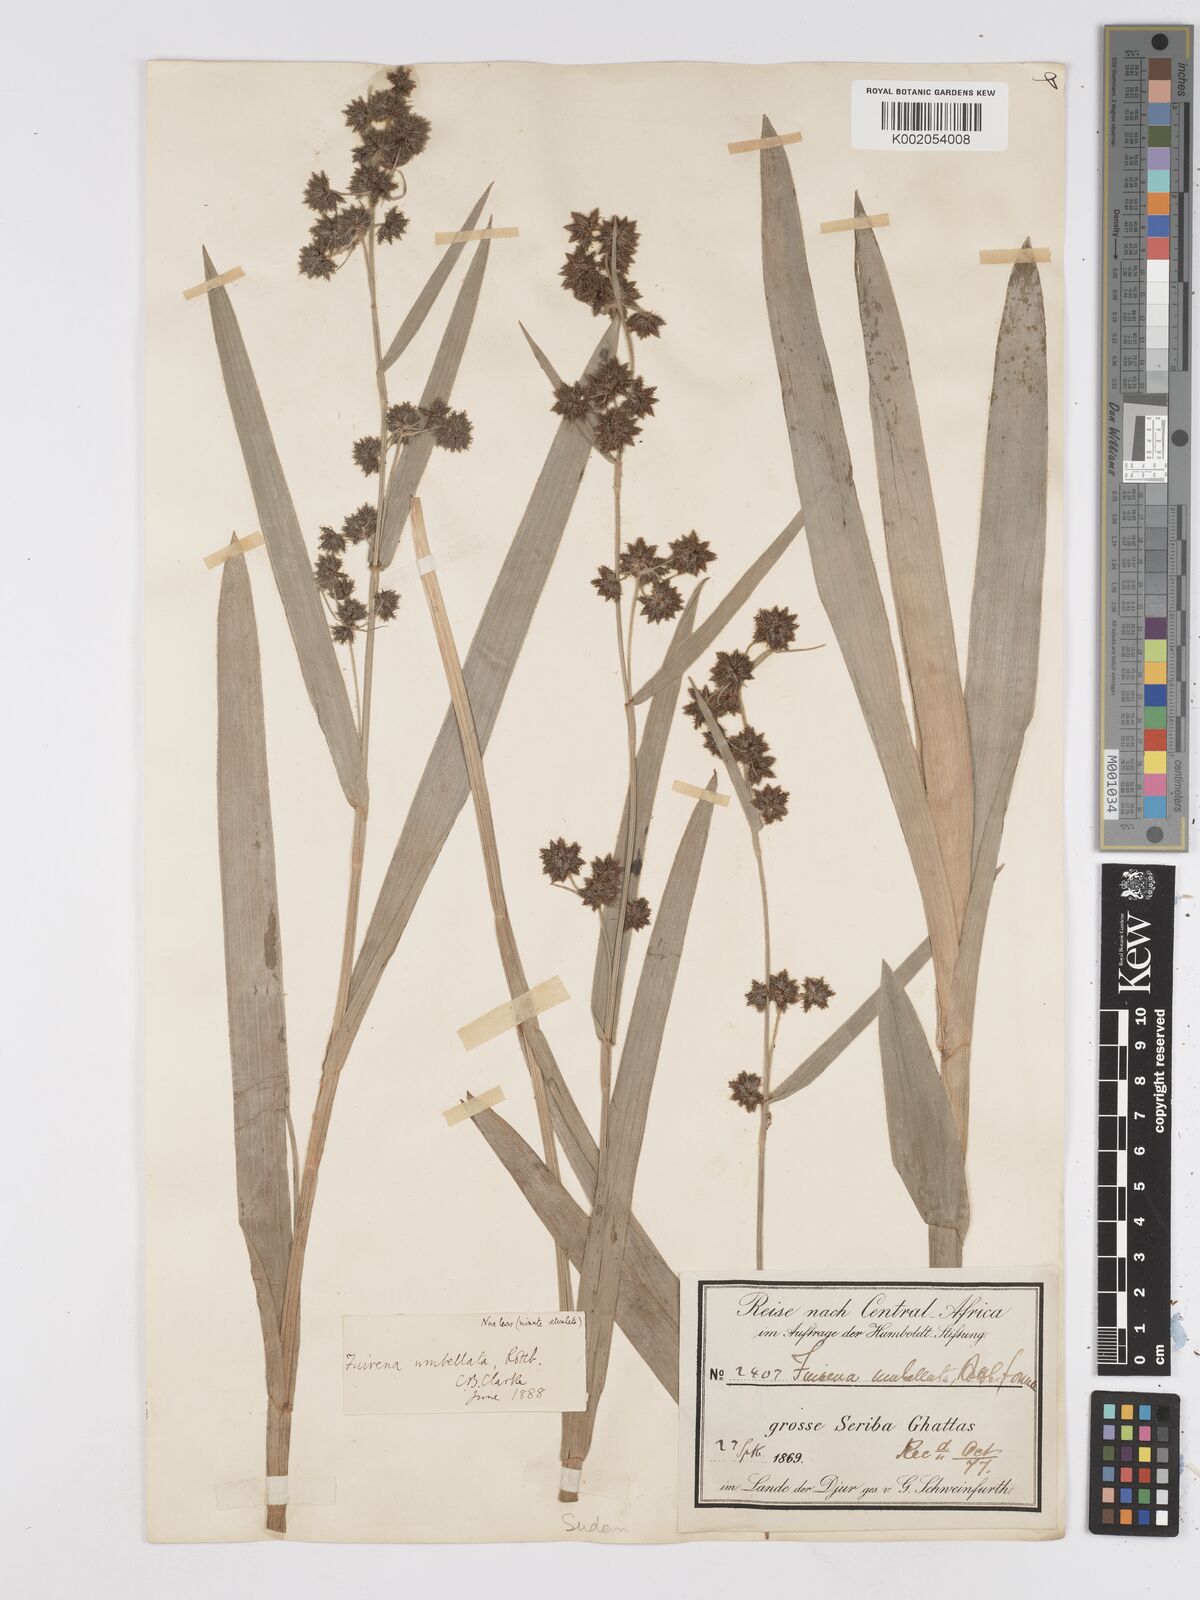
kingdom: Plantae
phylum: Tracheophyta
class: Liliopsida
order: Poales
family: Cyperaceae
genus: Fuirena
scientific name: Fuirena umbellata
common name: Yefen
